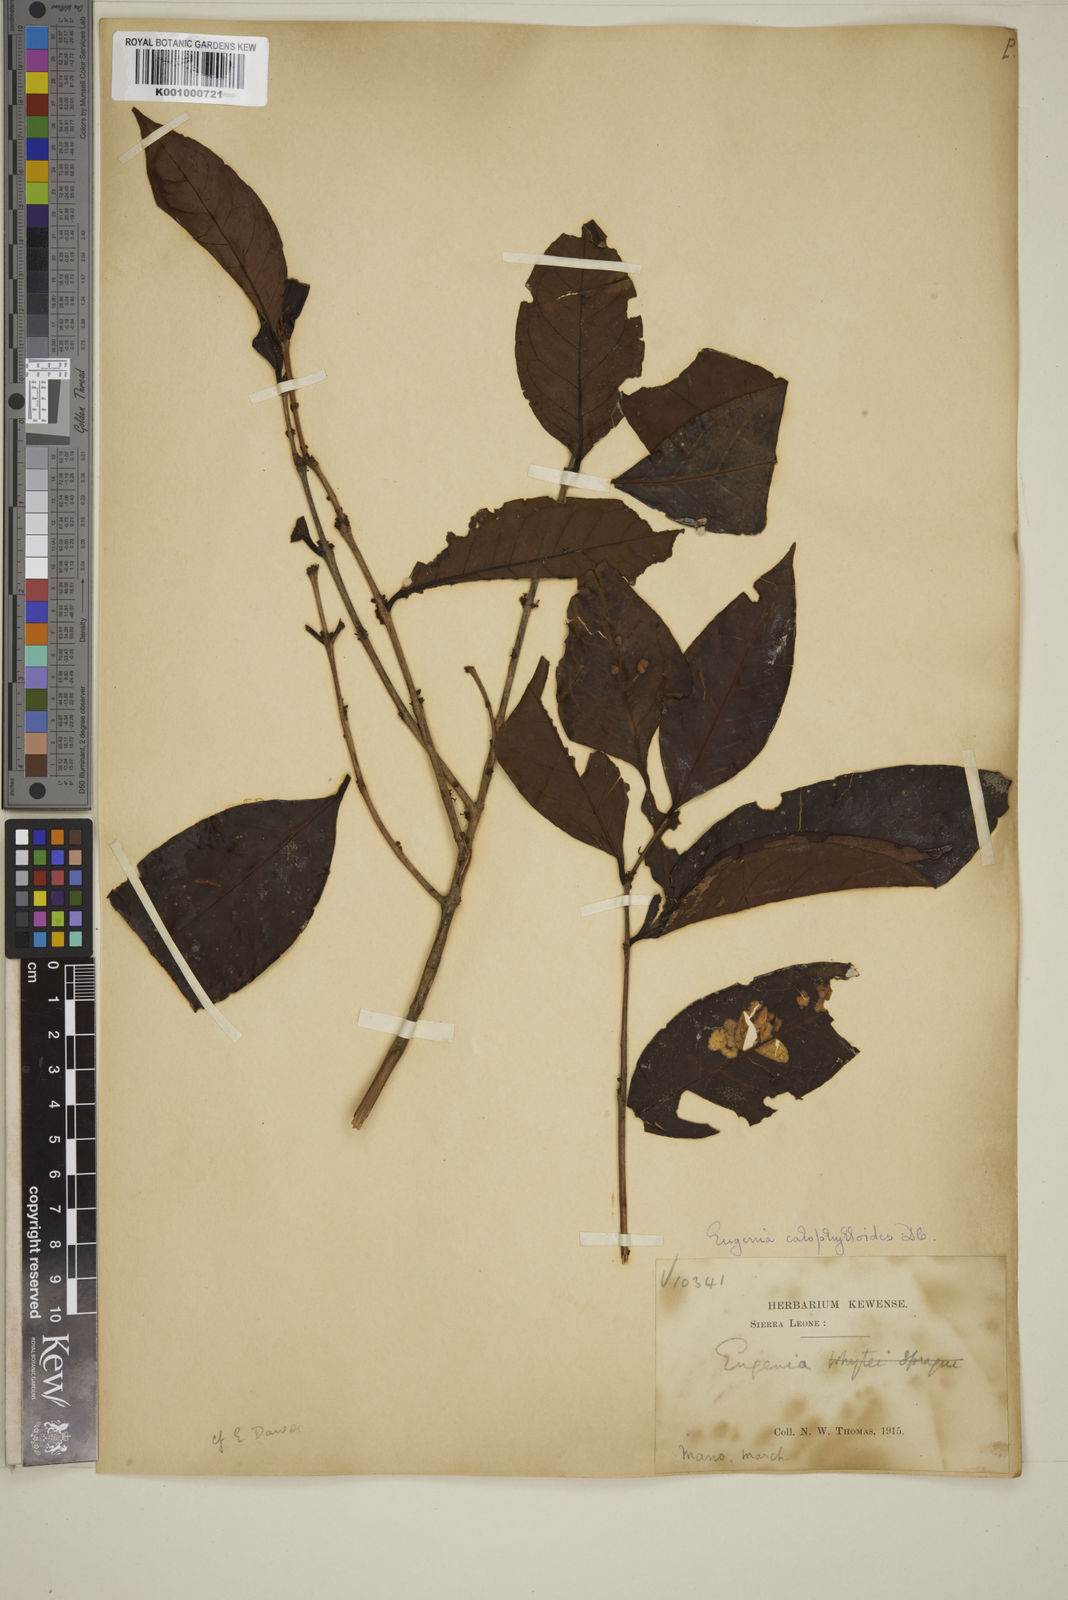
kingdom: Plantae
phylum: Tracheophyta
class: Magnoliopsida
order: Myrtales
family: Myrtaceae
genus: Eugenia
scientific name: Eugenia calophylloides
